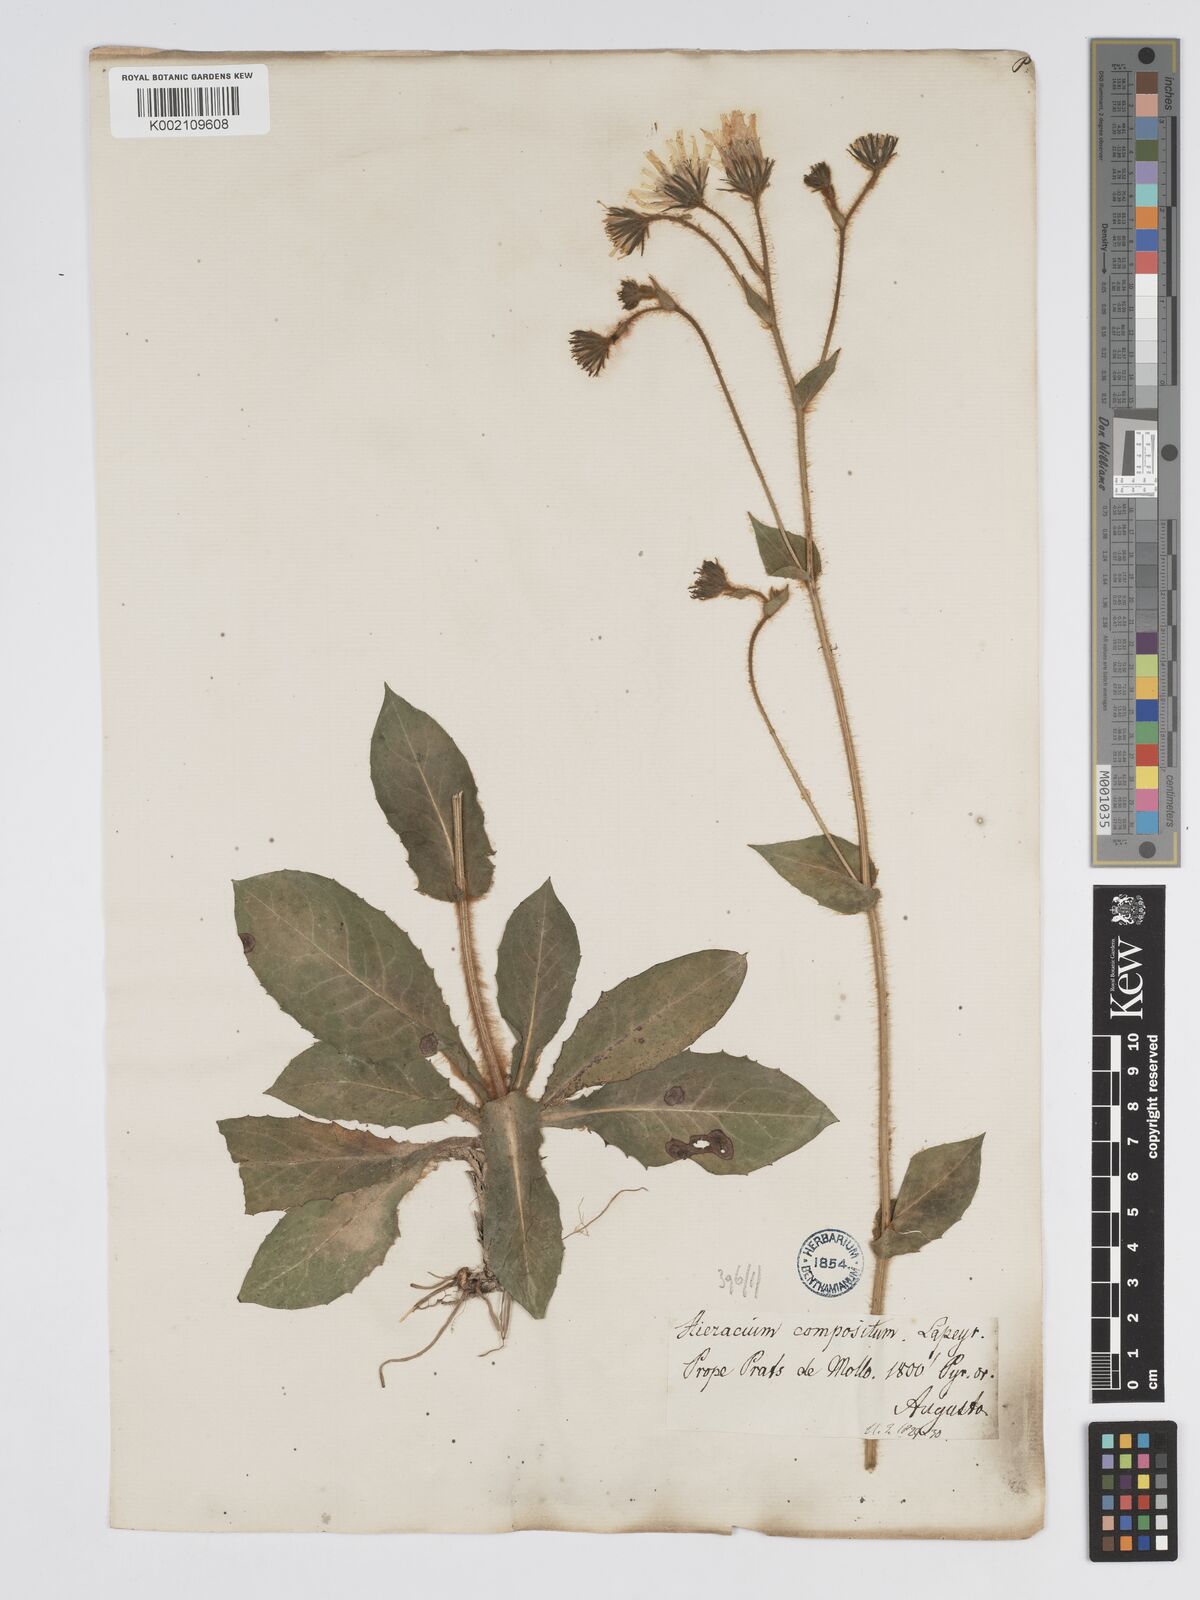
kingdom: Plantae
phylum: Tracheophyta
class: Magnoliopsida
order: Asterales
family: Asteraceae
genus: Hieracium
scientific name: Hieracium compositum
